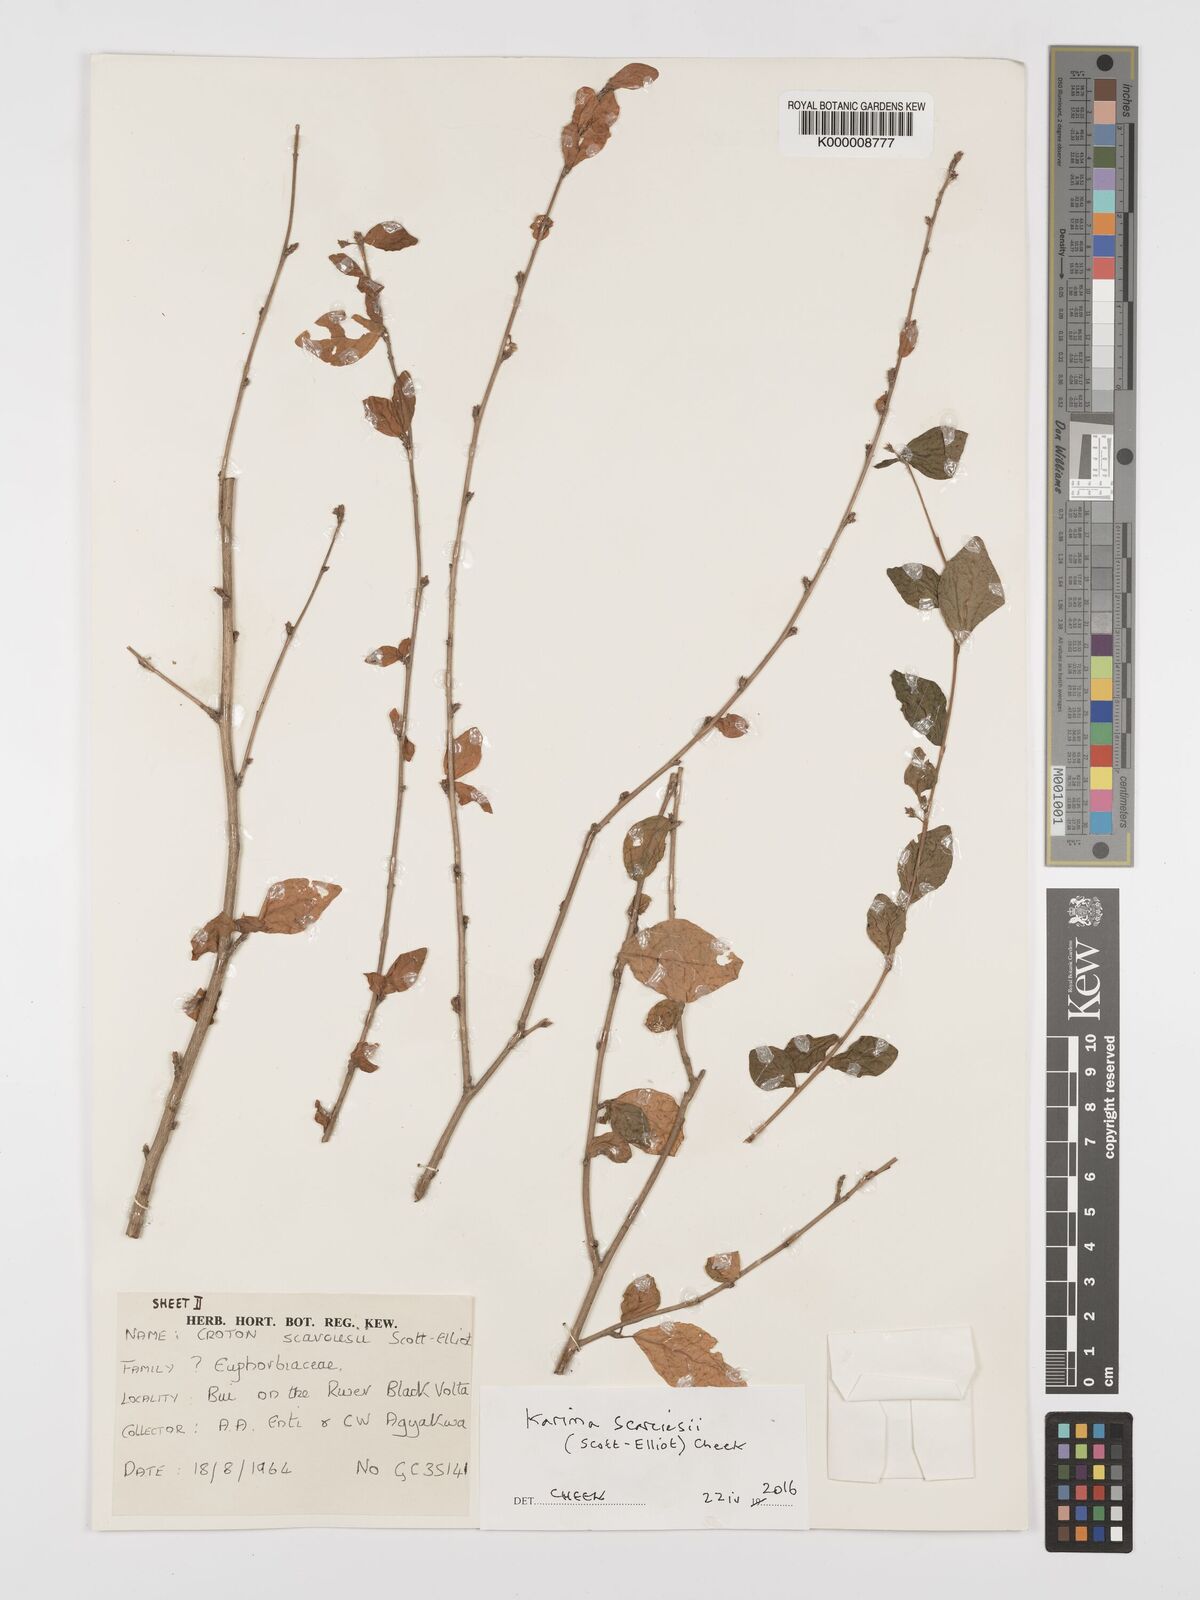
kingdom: Plantae
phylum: Tracheophyta
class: Magnoliopsida
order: Malpighiales
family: Ochnaceae
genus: Campylospermum
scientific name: Campylospermum reticulatum
